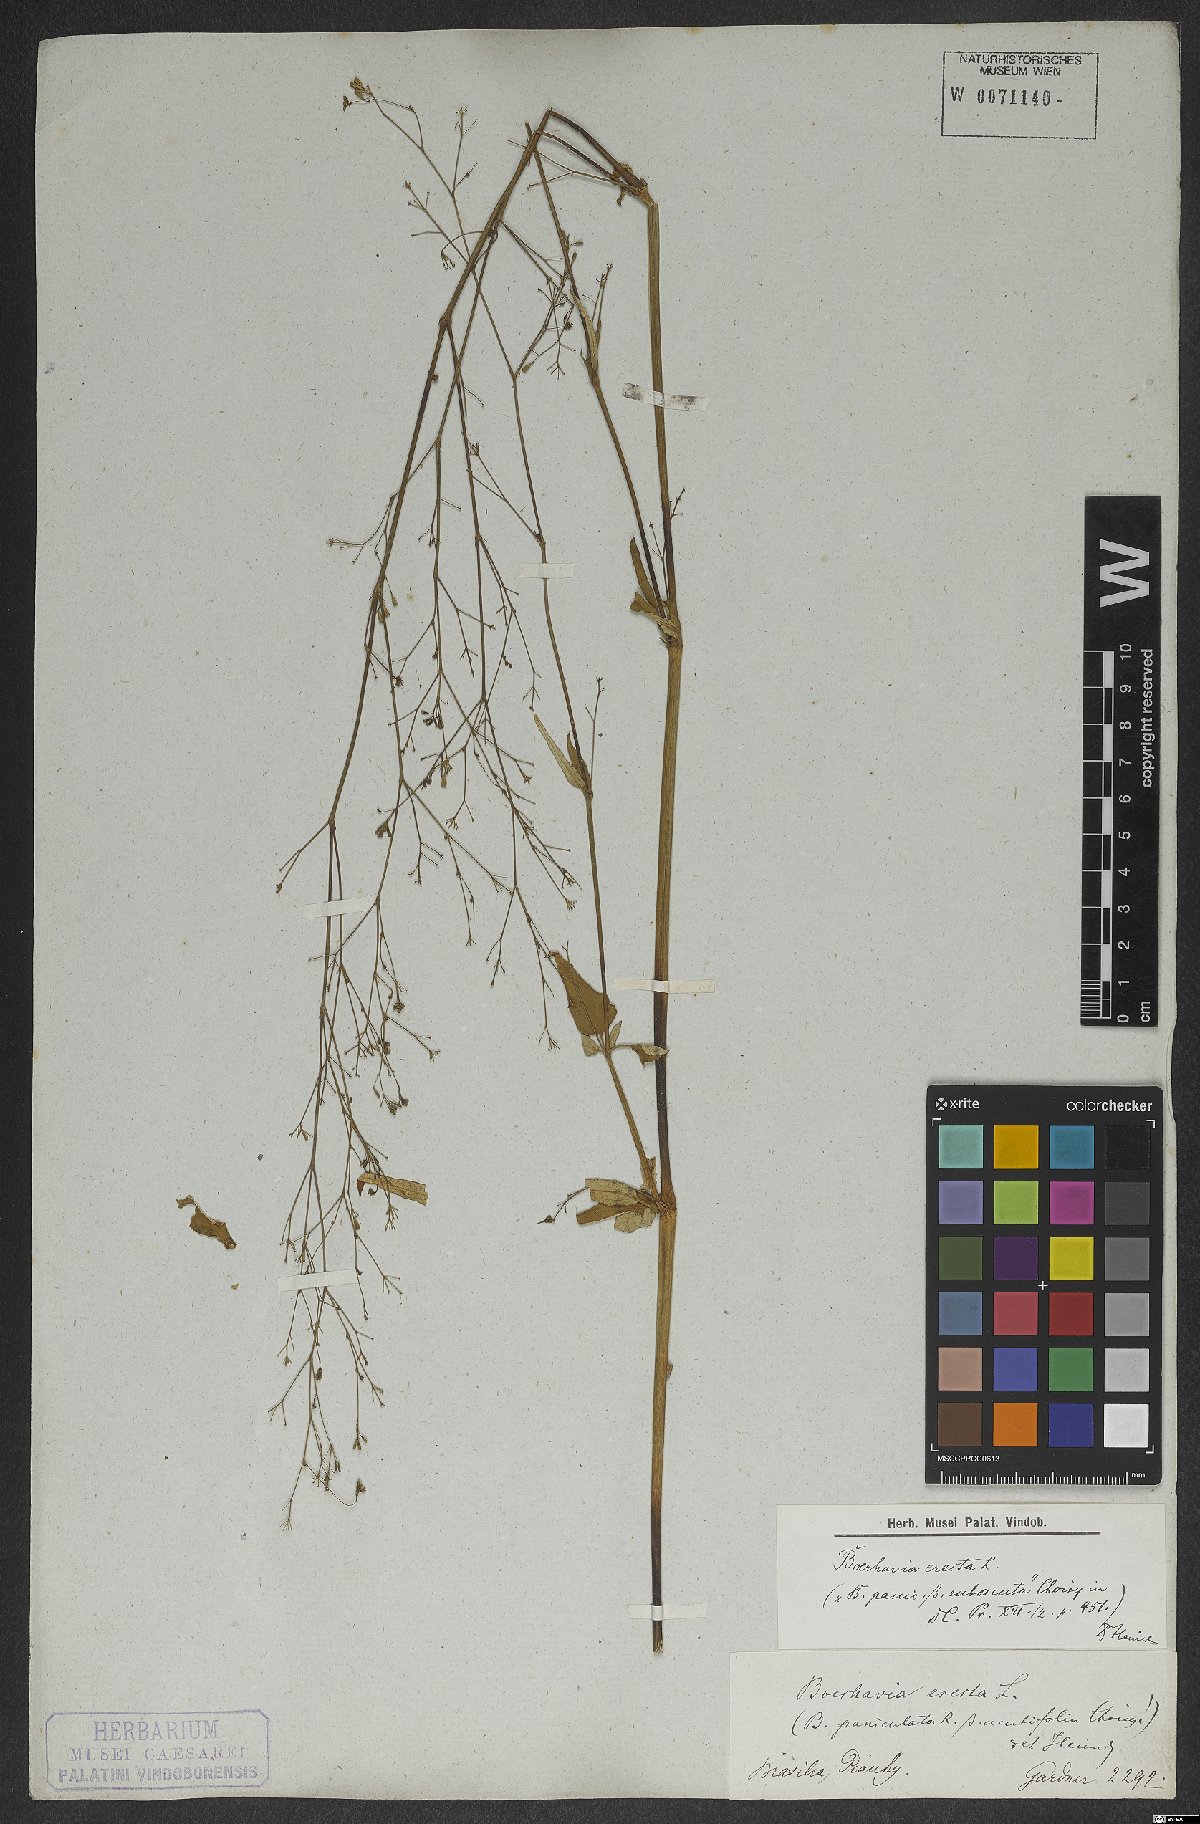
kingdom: Plantae
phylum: Tracheophyta
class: Magnoliopsida
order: Caryophyllales
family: Nyctaginaceae
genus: Boerhavia
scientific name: Boerhavia erecta
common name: Erect spiderling
